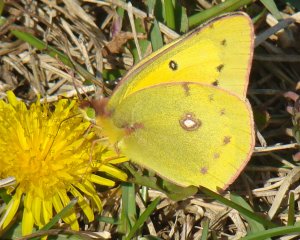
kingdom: Animalia
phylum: Arthropoda
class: Insecta
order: Lepidoptera
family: Pieridae
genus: Colias
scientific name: Colias eurytheme
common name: Orange Sulphur
